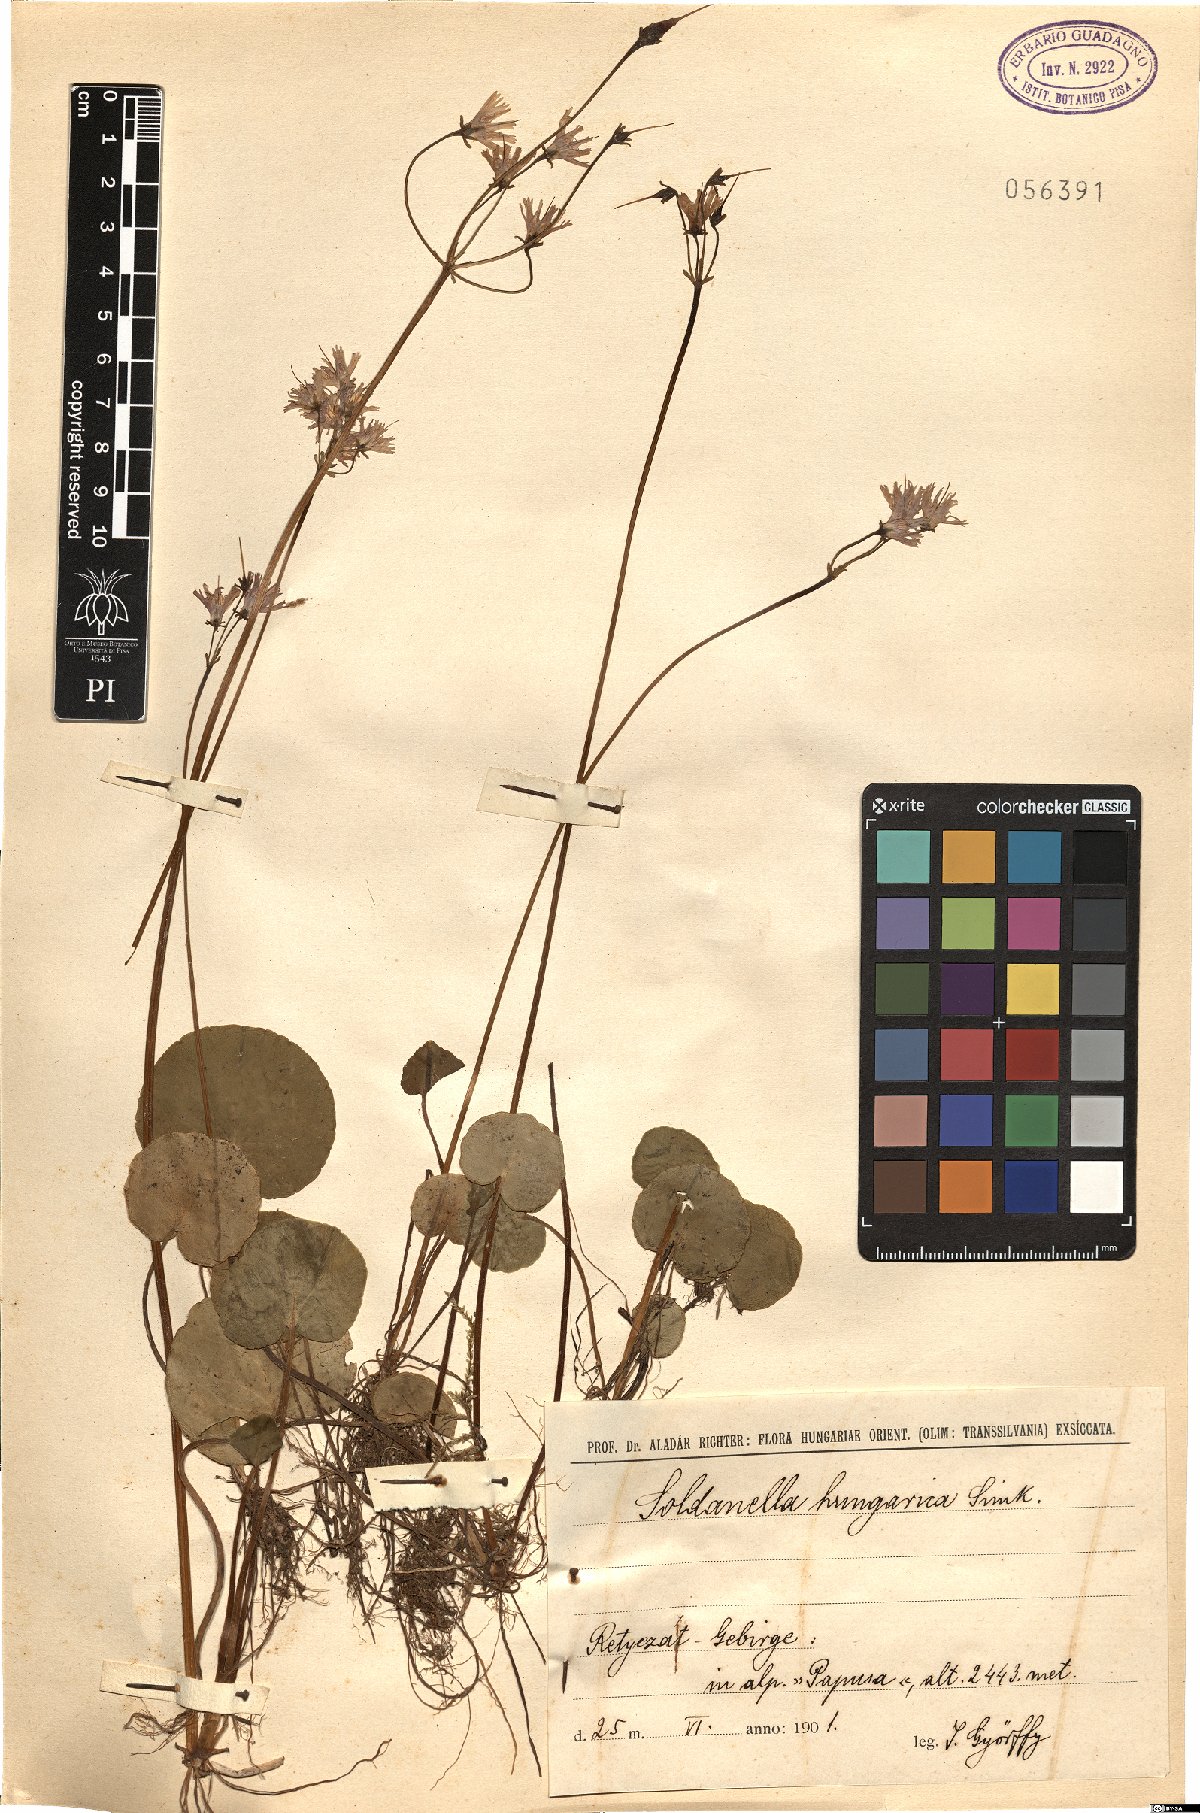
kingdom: Plantae
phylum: Tracheophyta
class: Magnoliopsida
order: Ericales
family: Primulaceae
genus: Soldanella
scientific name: Soldanella hungarica
